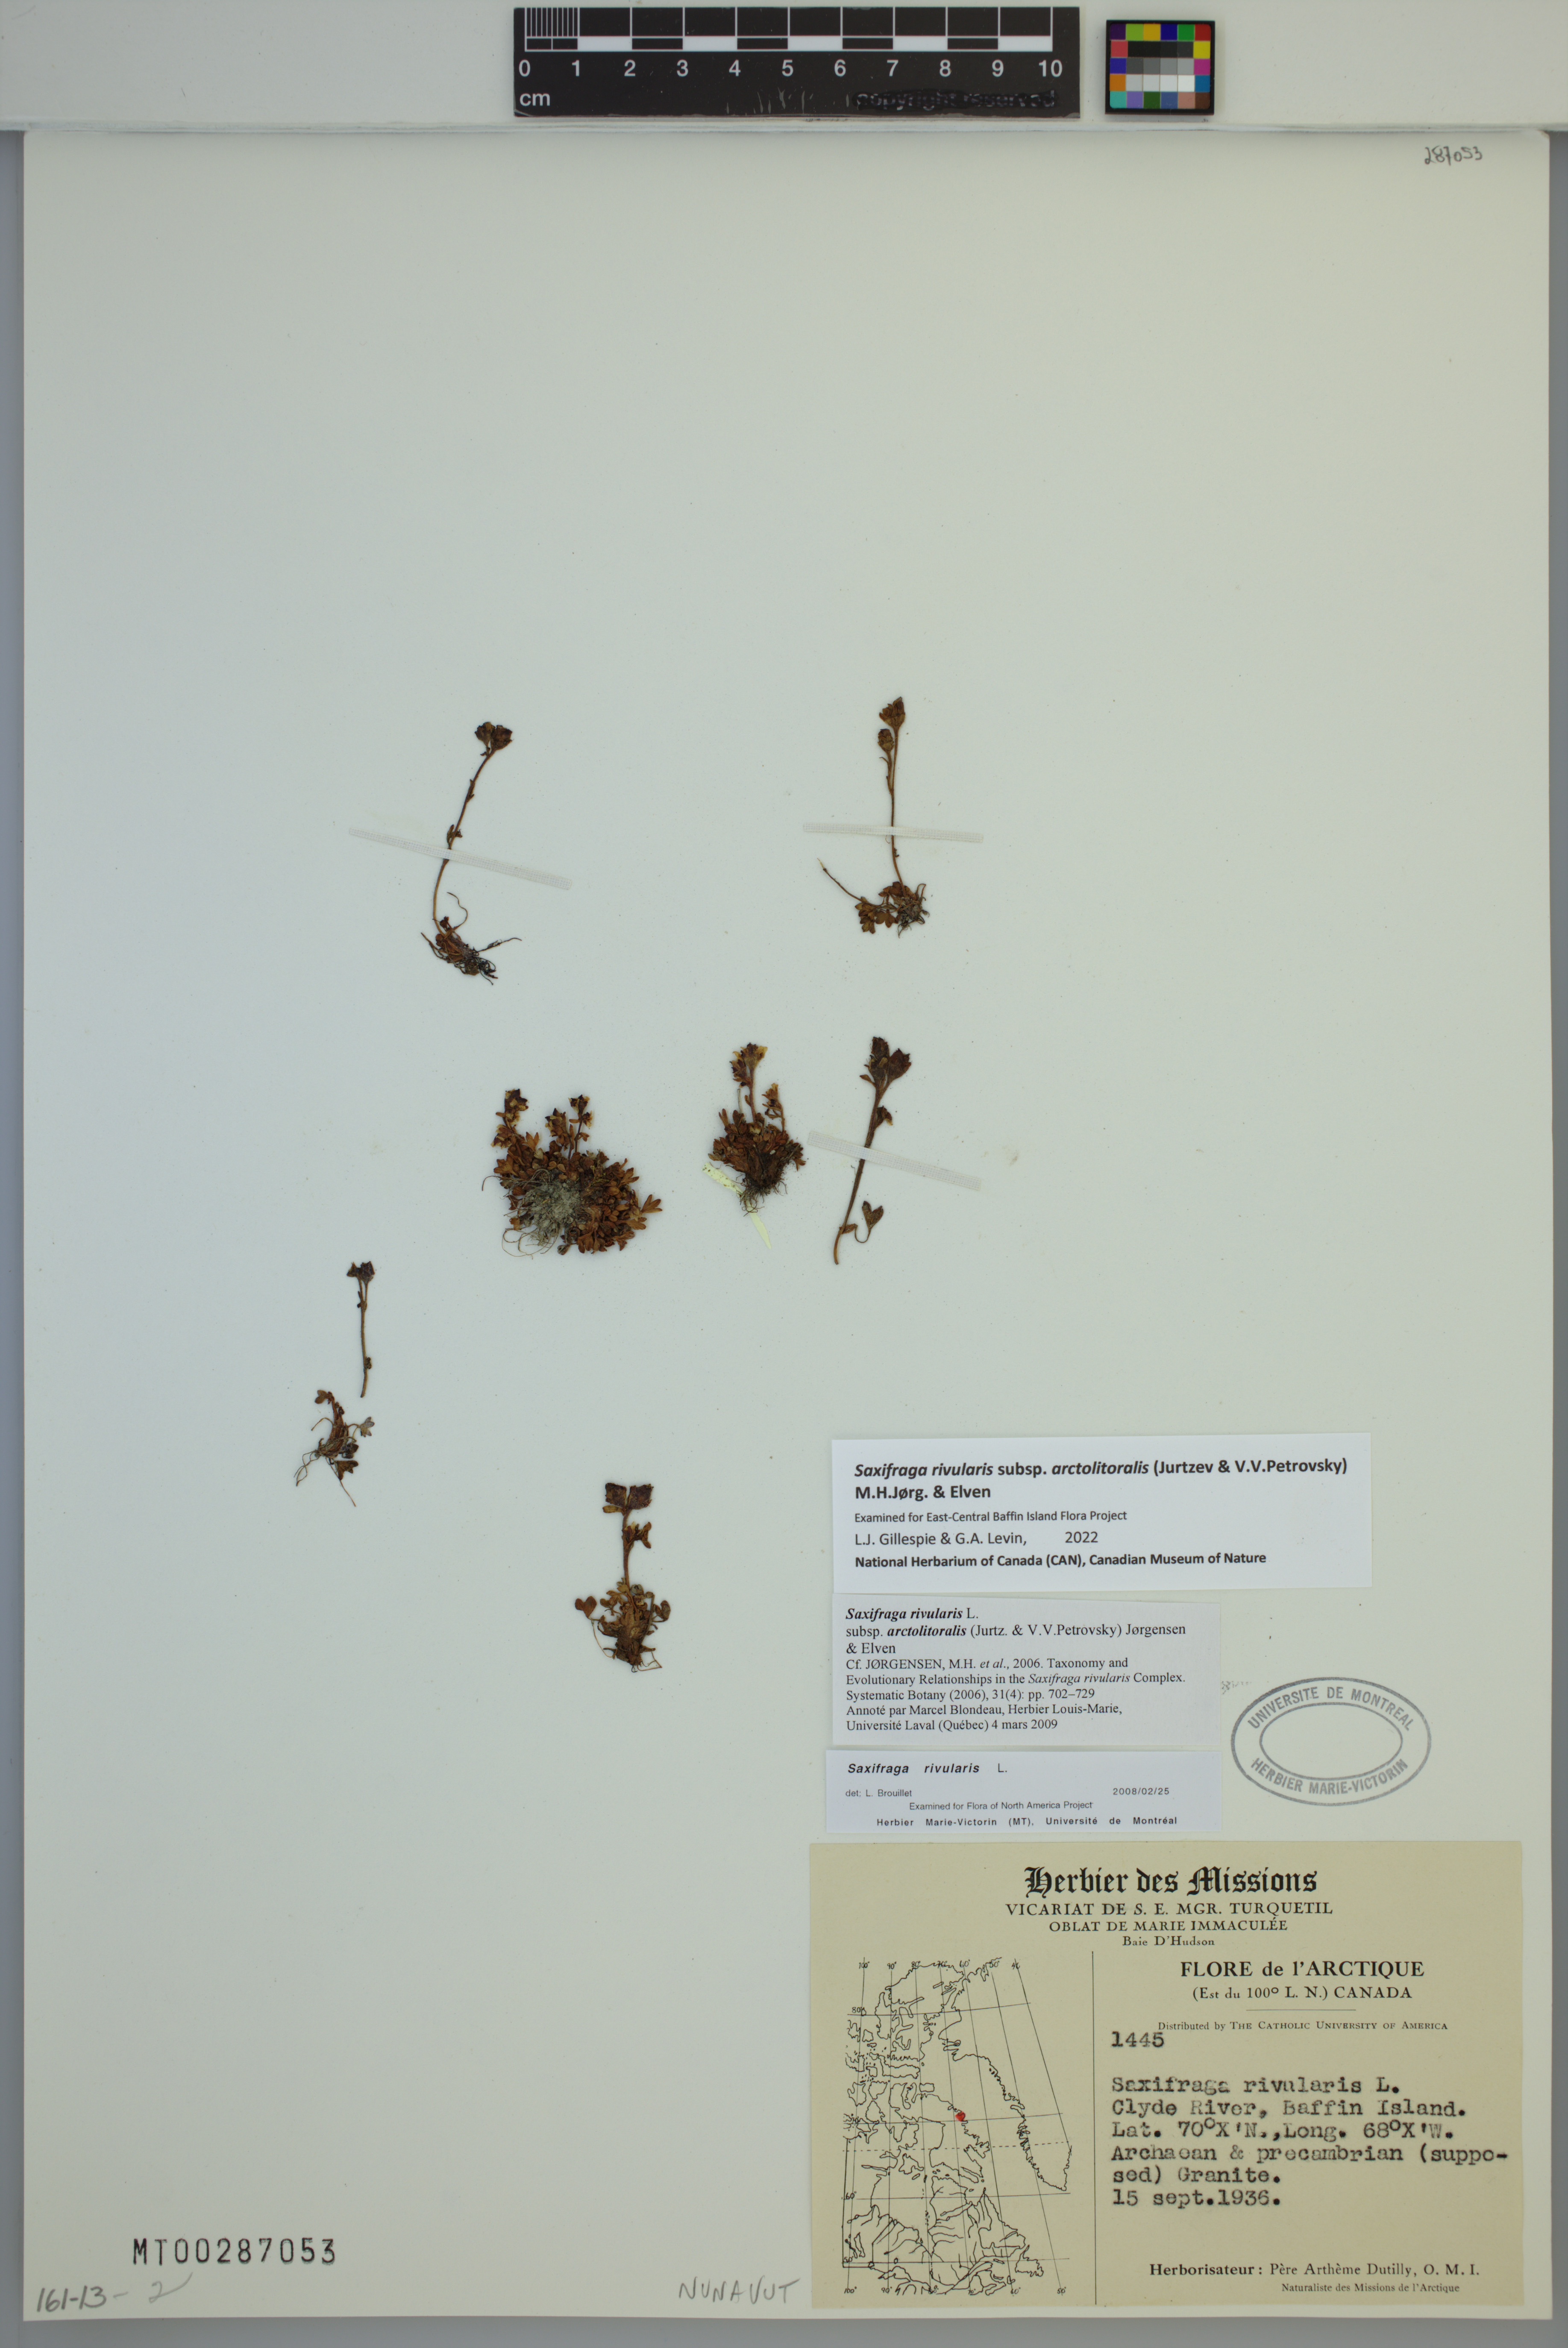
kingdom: Plantae
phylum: Tracheophyta
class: Magnoliopsida
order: Saxifragales
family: Saxifragaceae
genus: Saxifraga
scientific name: Saxifraga rivularis
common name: Highland saxifrage
